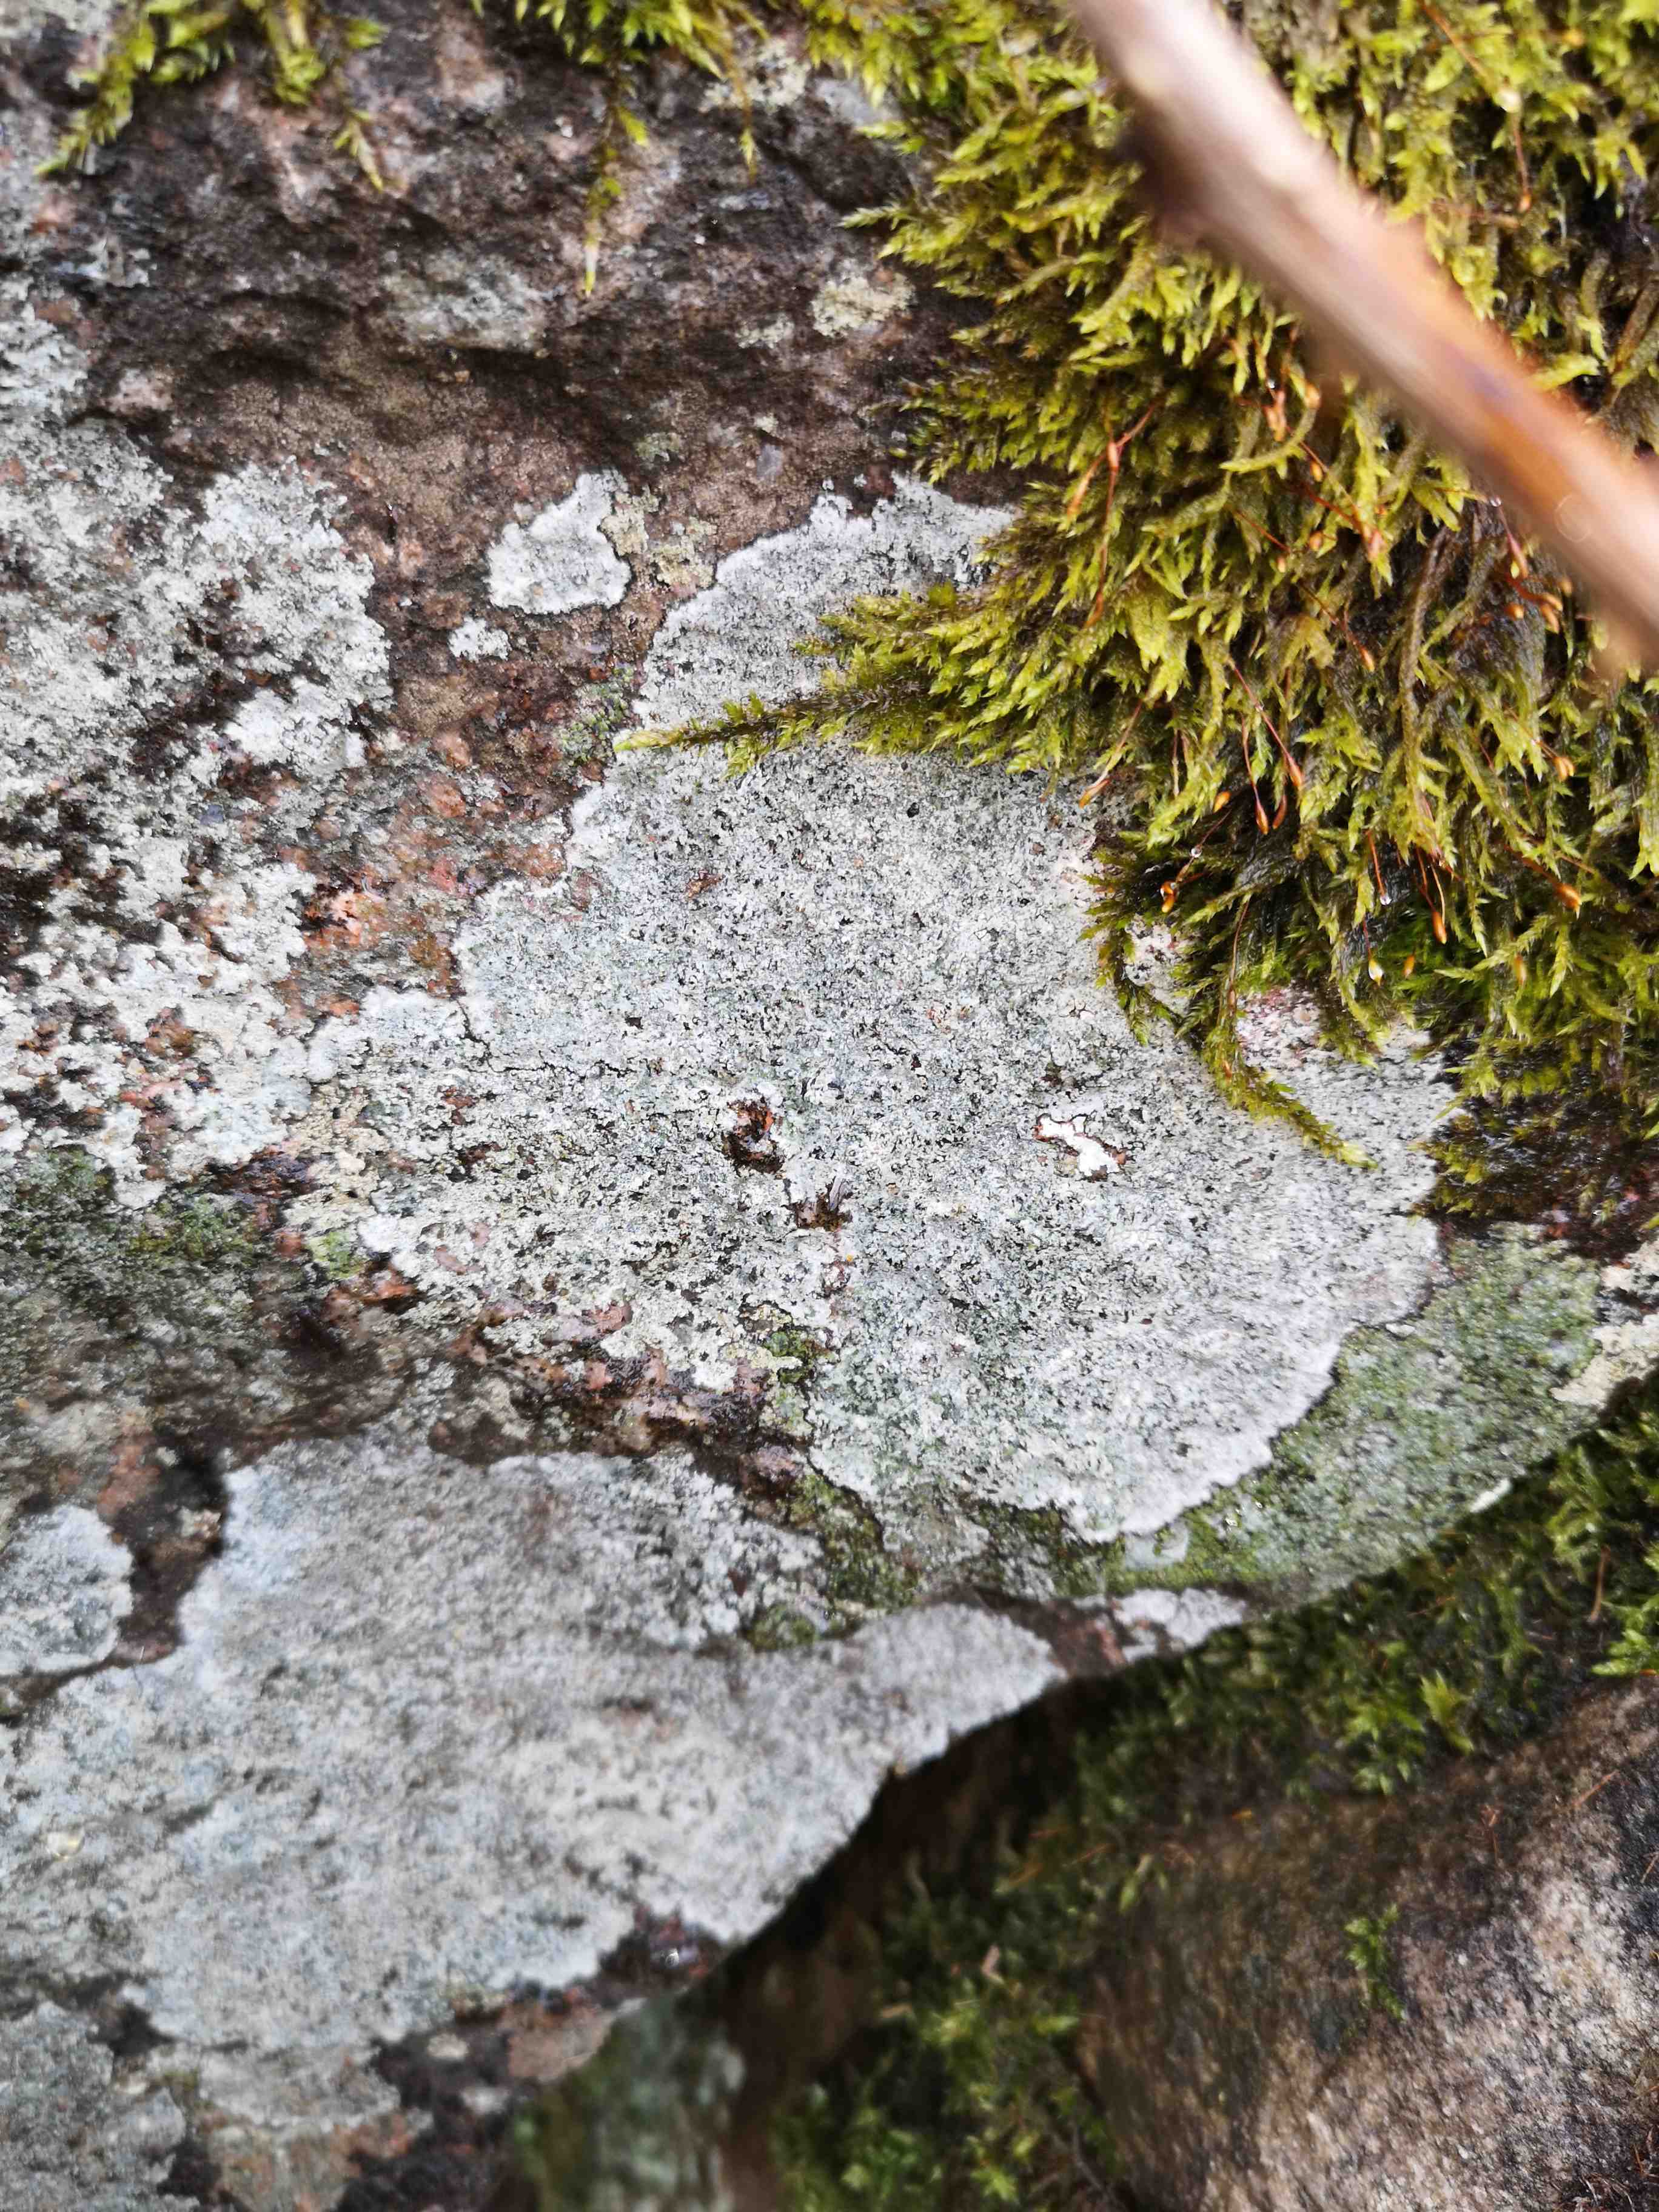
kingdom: Fungi
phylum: Ascomycota
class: Lecanoromycetes
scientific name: Lecanoromycetes
